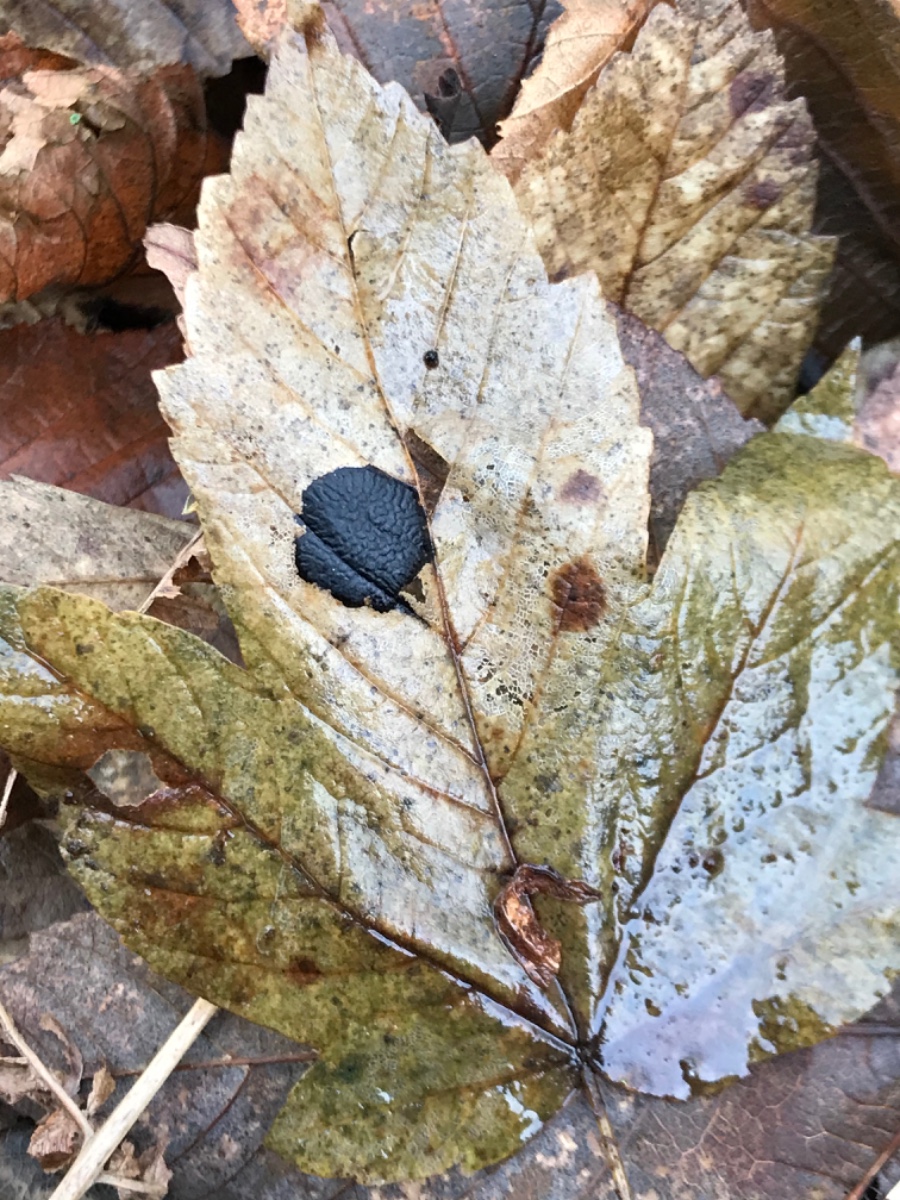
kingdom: Fungi
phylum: Ascomycota
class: Leotiomycetes
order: Rhytismatales
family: Rhytismataceae
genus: Rhytisma
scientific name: Rhytisma acerinum
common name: ahorn-rynkeplet
